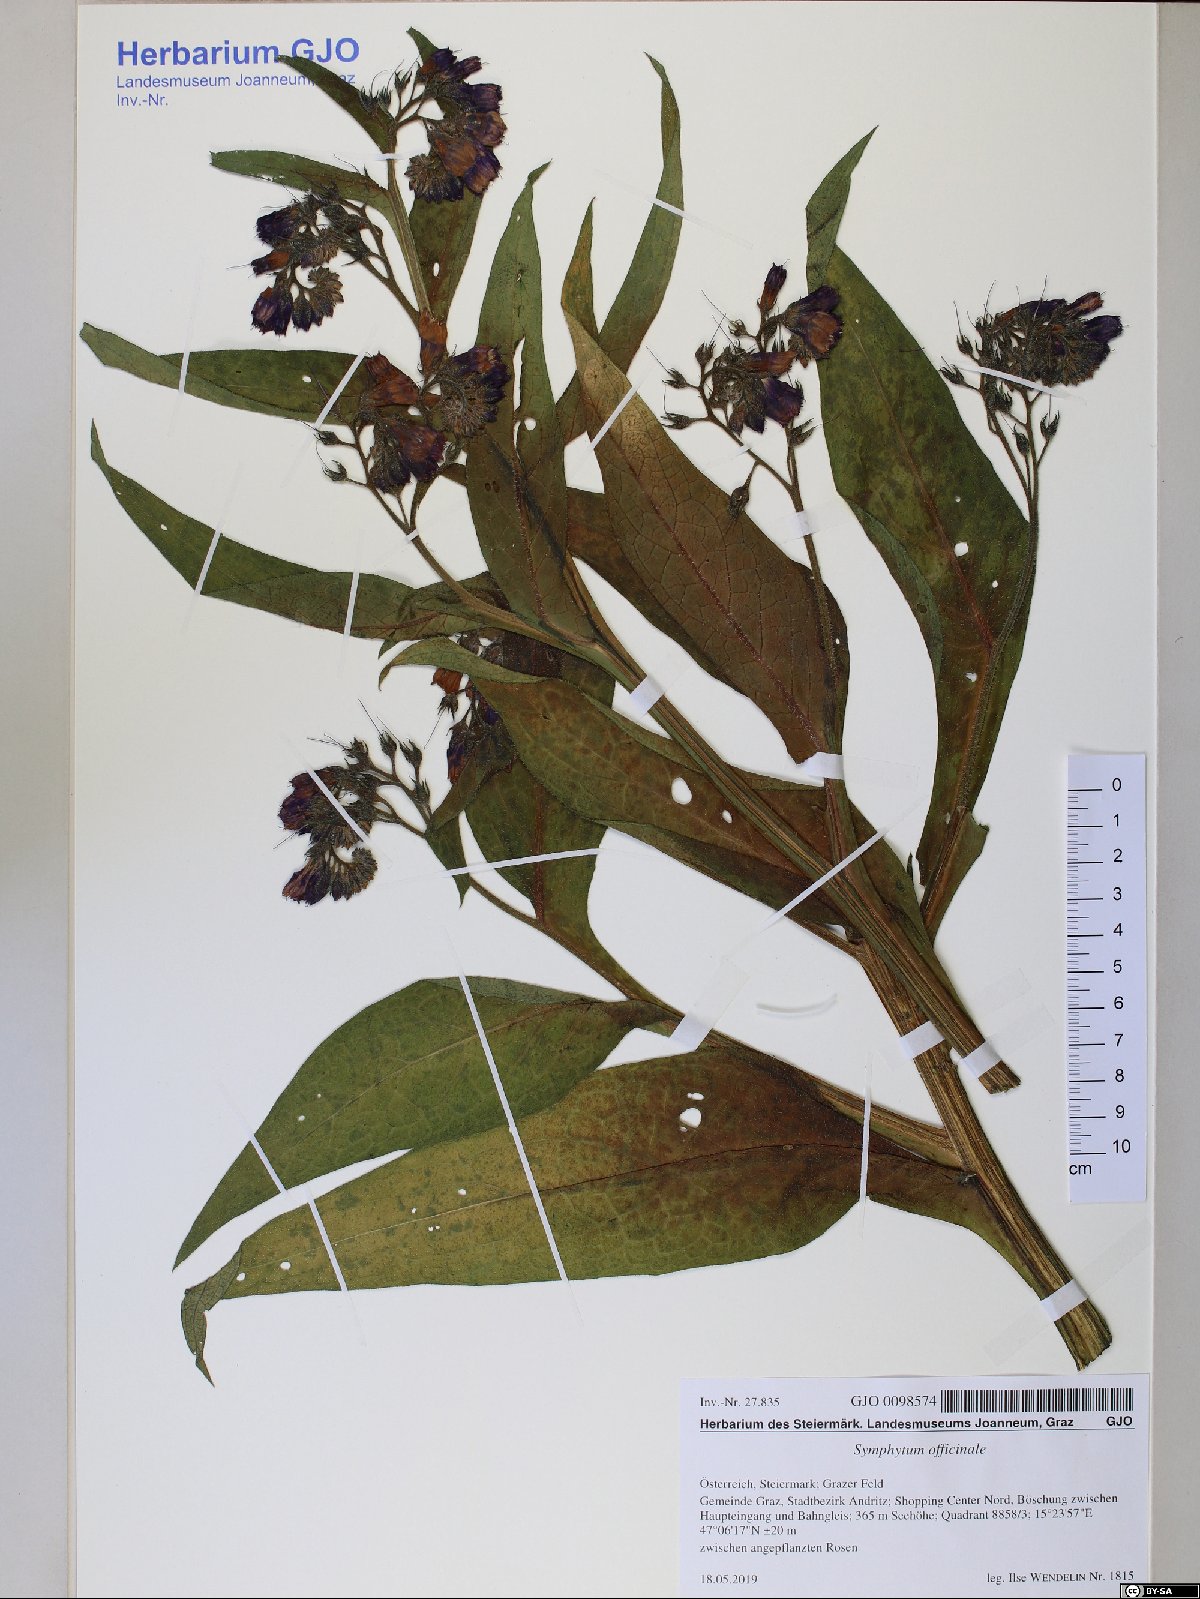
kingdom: Plantae
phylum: Tracheophyta
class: Magnoliopsida
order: Boraginales
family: Boraginaceae
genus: Symphytum
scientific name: Symphytum officinale
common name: Common comfrey
